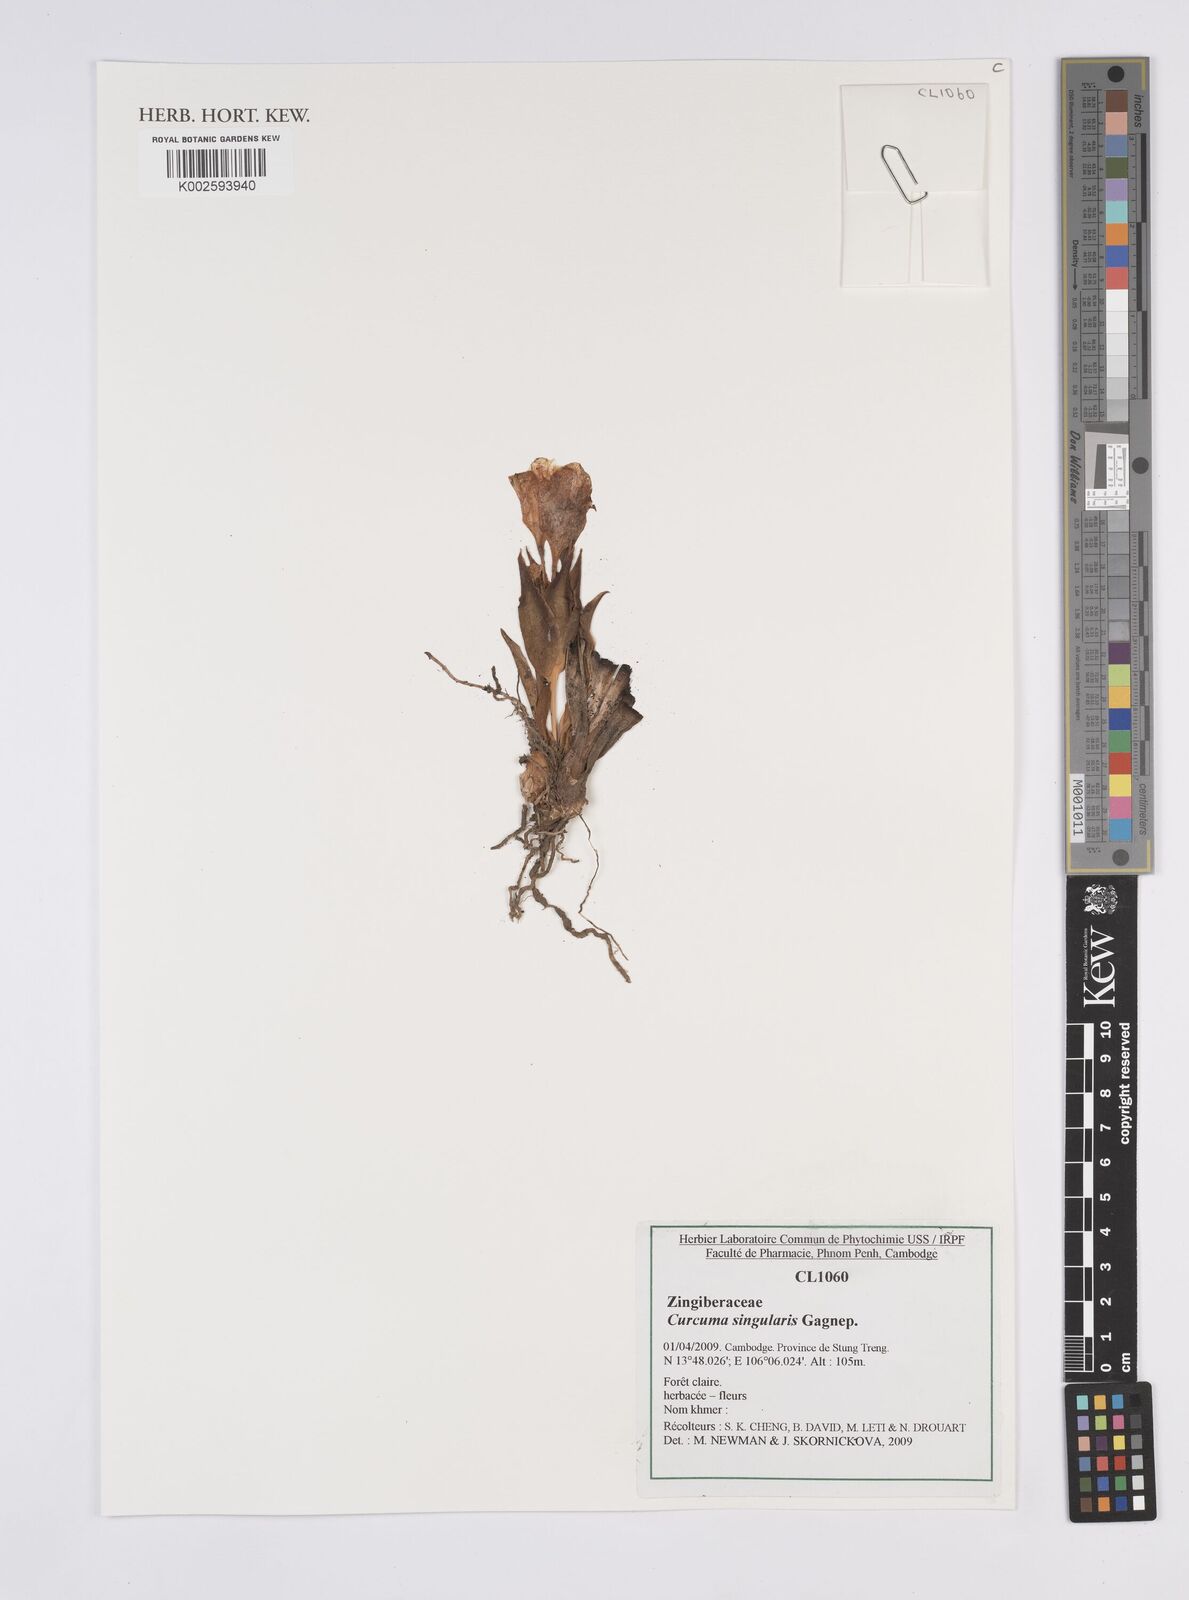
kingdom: Plantae
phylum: Tracheophyta
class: Liliopsida
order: Zingiberales
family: Zingiberaceae
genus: Curcuma
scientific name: Curcuma singularis
